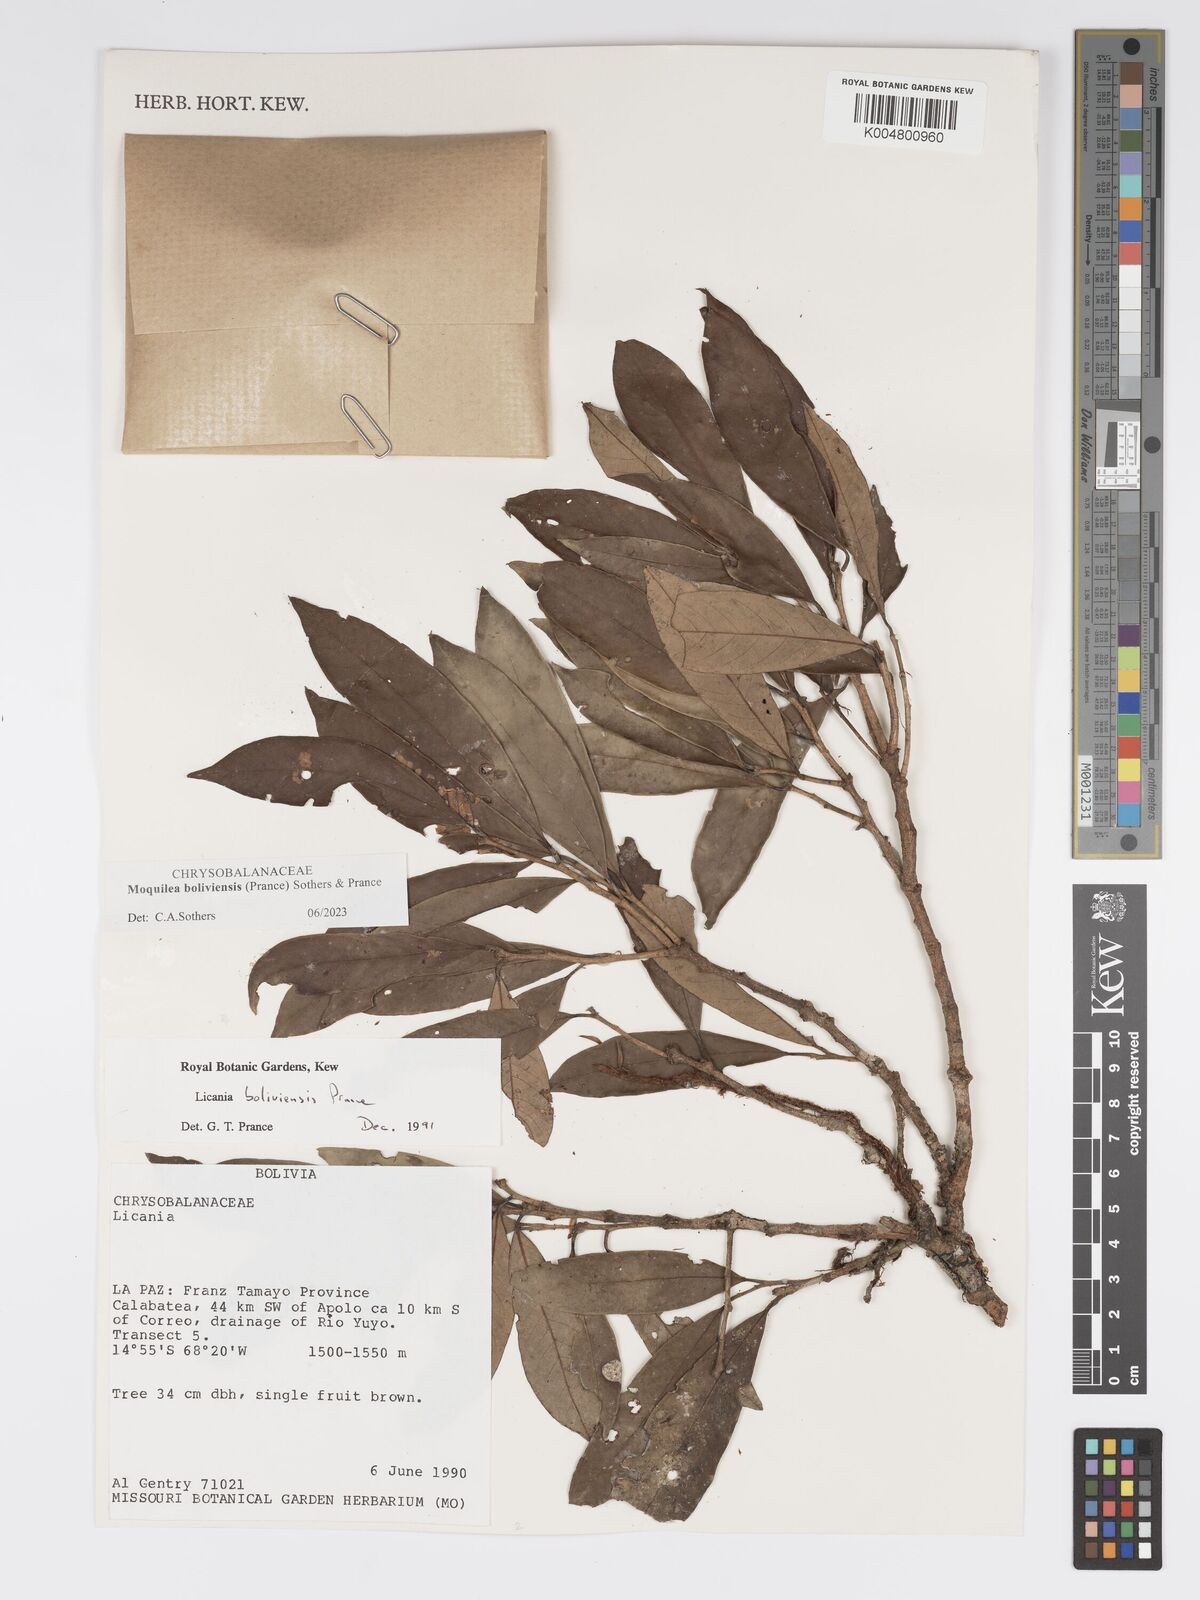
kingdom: Plantae
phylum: Tracheophyta
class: Magnoliopsida
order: Malpighiales
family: Chrysobalanaceae
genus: Moquilea
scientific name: Moquilea boliviensis
